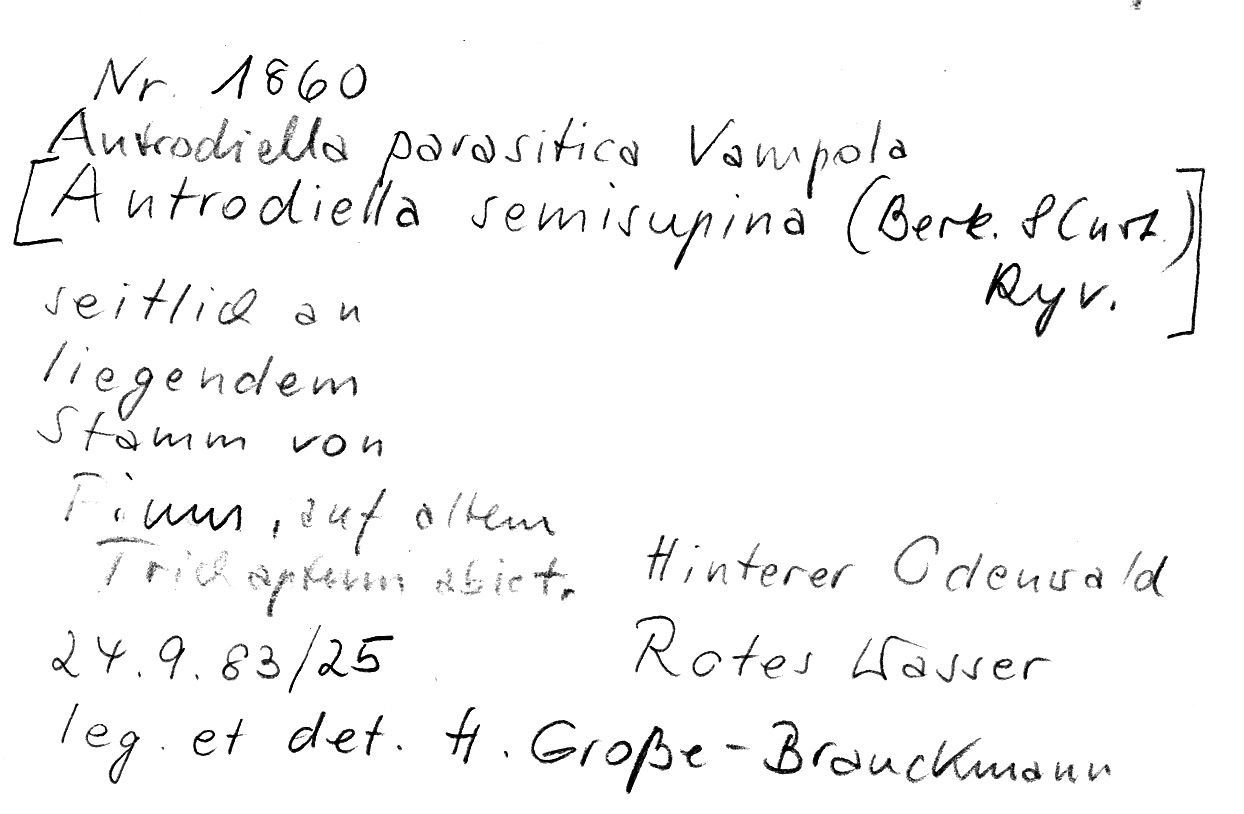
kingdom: Fungi
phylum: Basidiomycota
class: Agaricomycetes
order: Hymenochaetales
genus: Trichaptum
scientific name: Trichaptum abietinum
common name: Purplepore bracket
